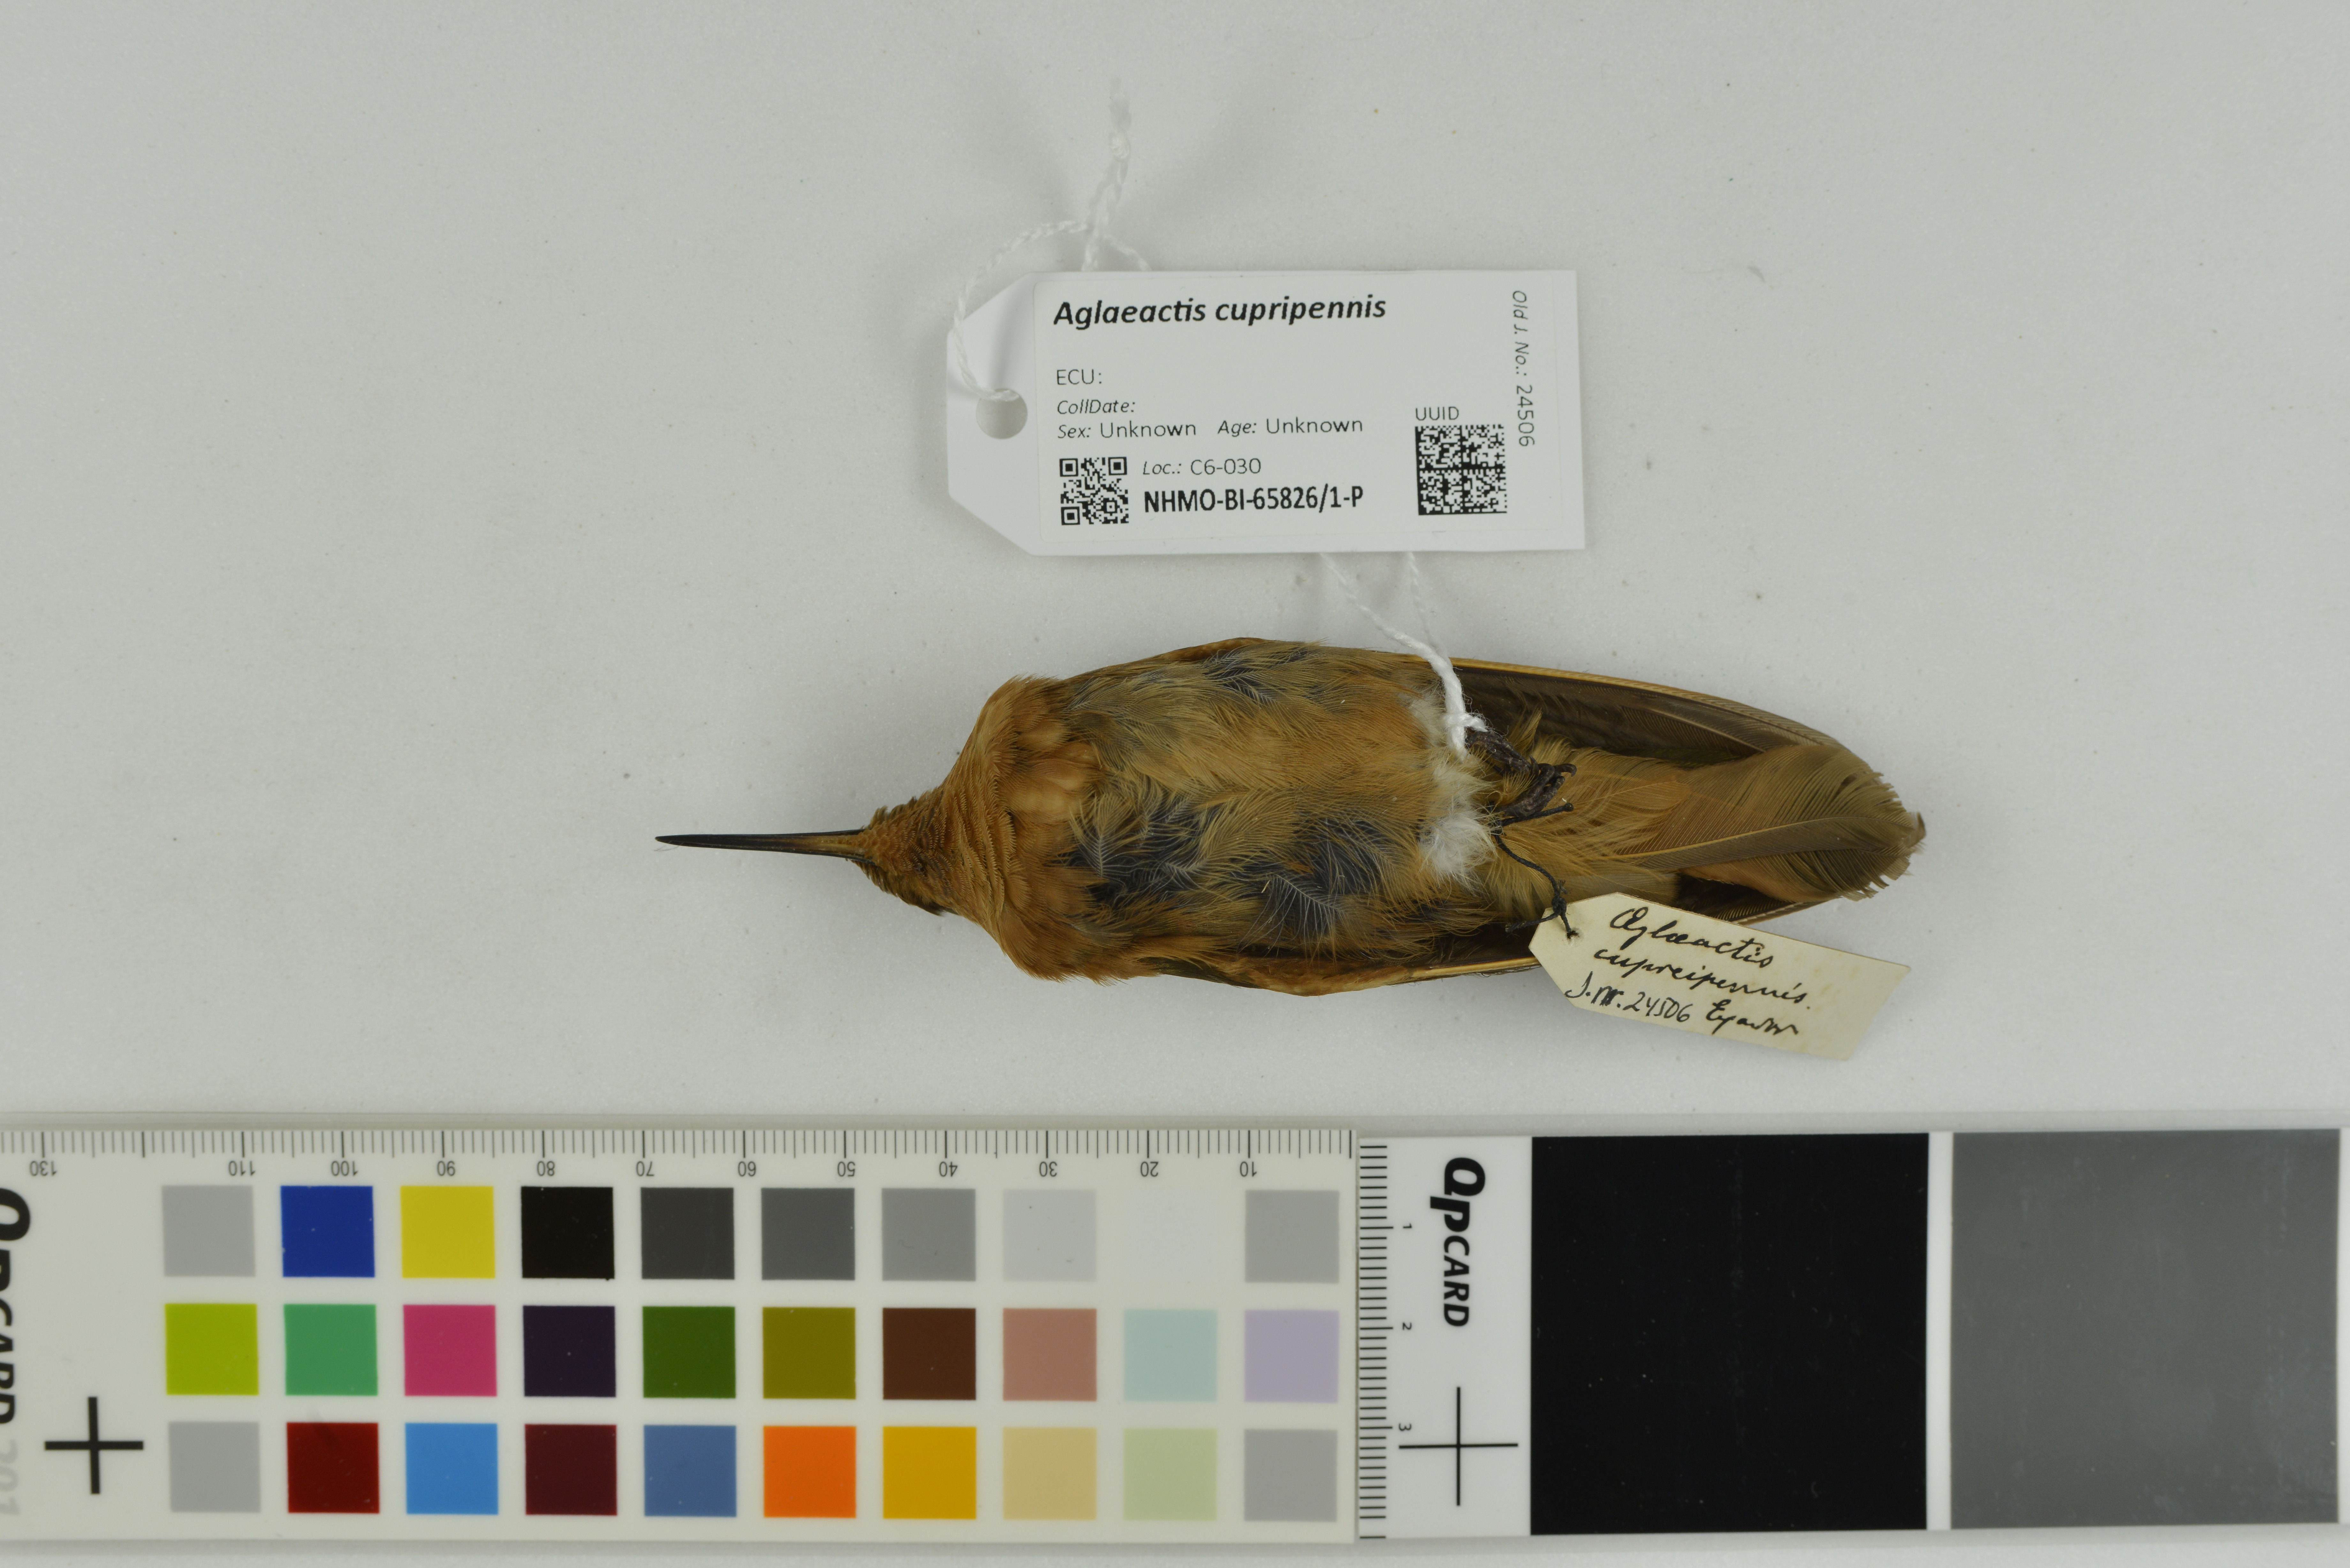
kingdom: Animalia
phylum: Chordata
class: Aves
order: Apodiformes
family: Trochilidae
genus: Aglaeactis
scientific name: Aglaeactis cupripennis
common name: Shining sunbeam
